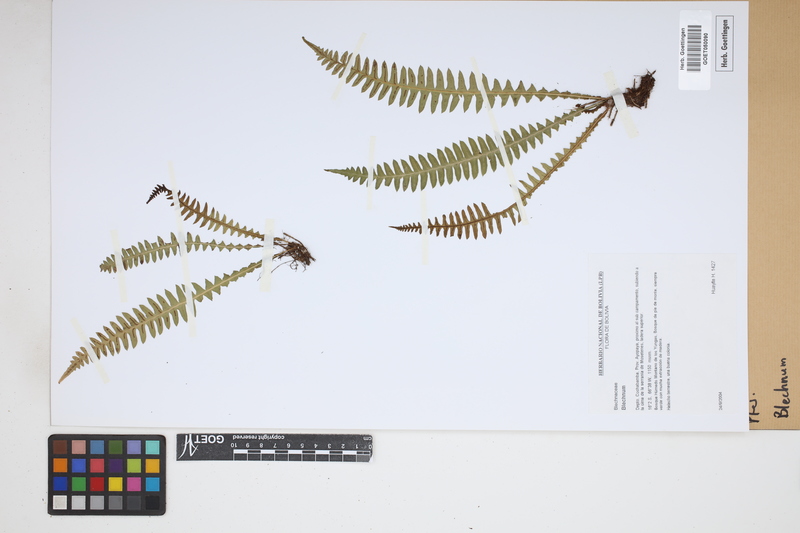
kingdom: Plantae
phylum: Tracheophyta
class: Polypodiopsida
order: Polypodiales
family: Blechnaceae
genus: Blechnum
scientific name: Blechnum
